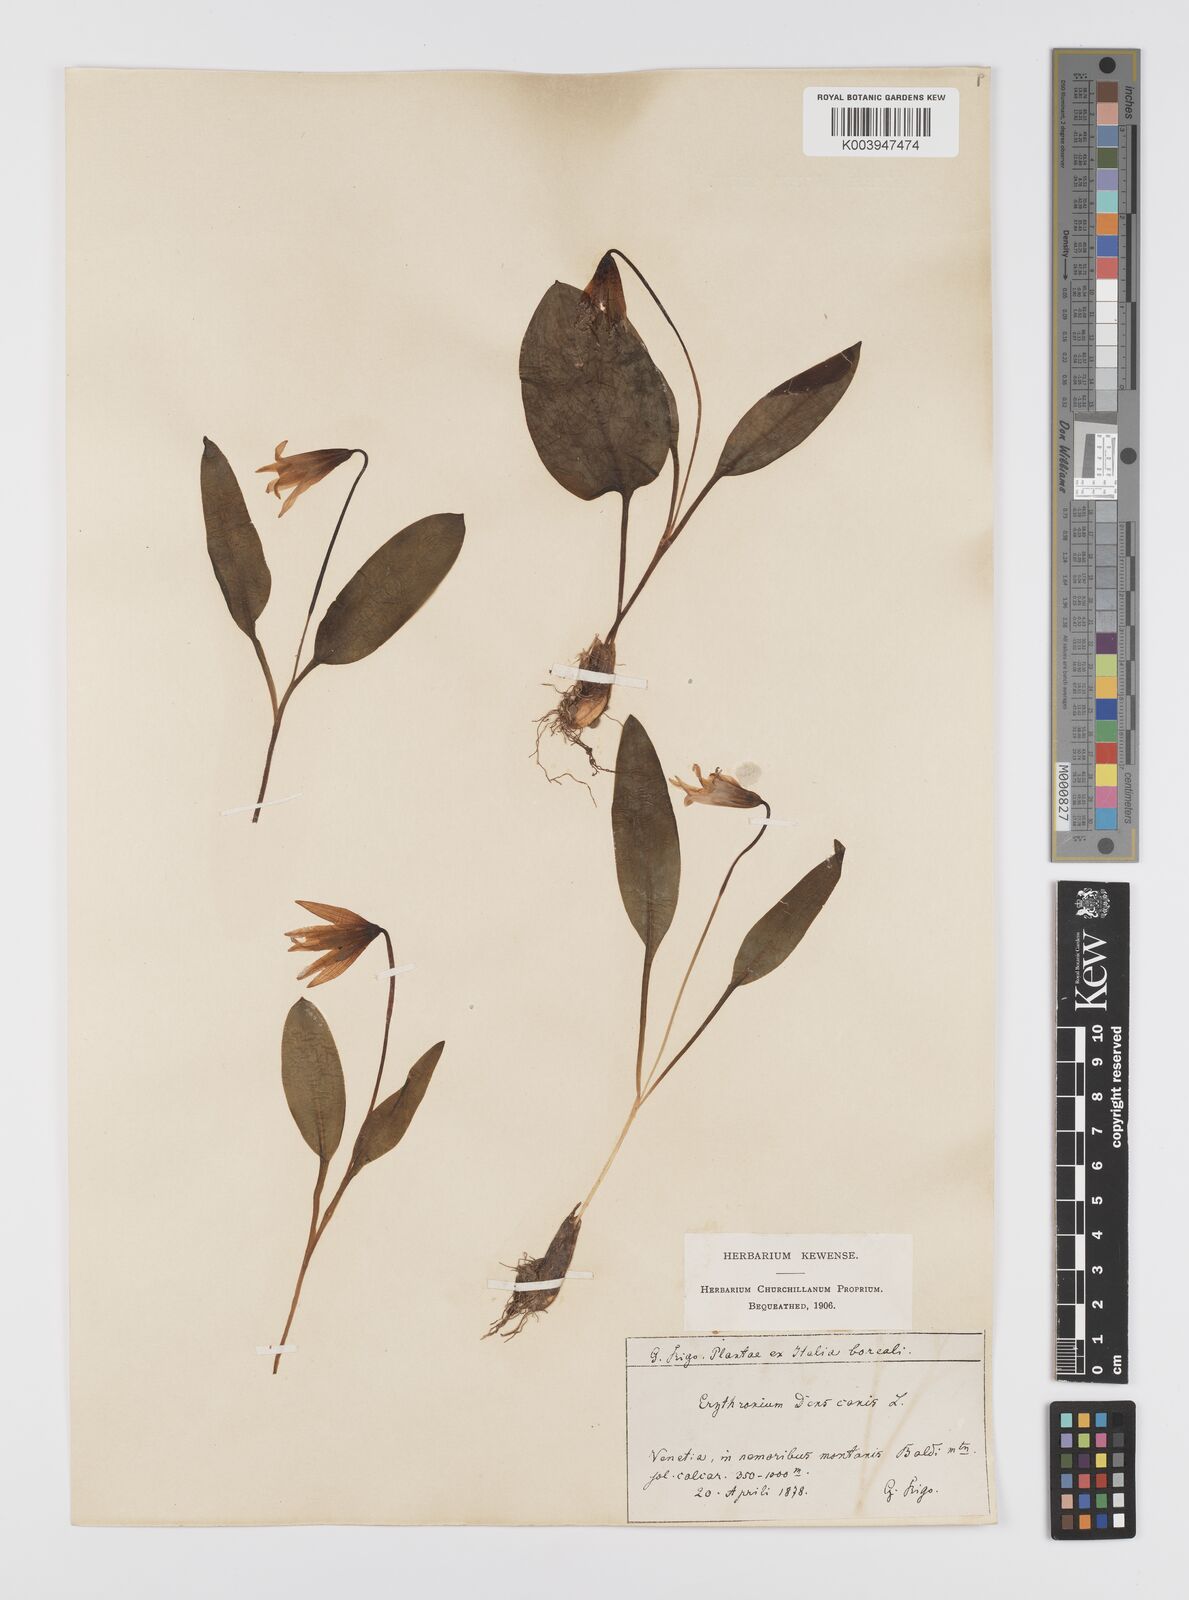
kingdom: Plantae
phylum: Tracheophyta
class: Liliopsida
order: Liliales
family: Liliaceae
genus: Erythronium
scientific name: Erythronium dens-canis
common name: Dog's-tooth-violet
